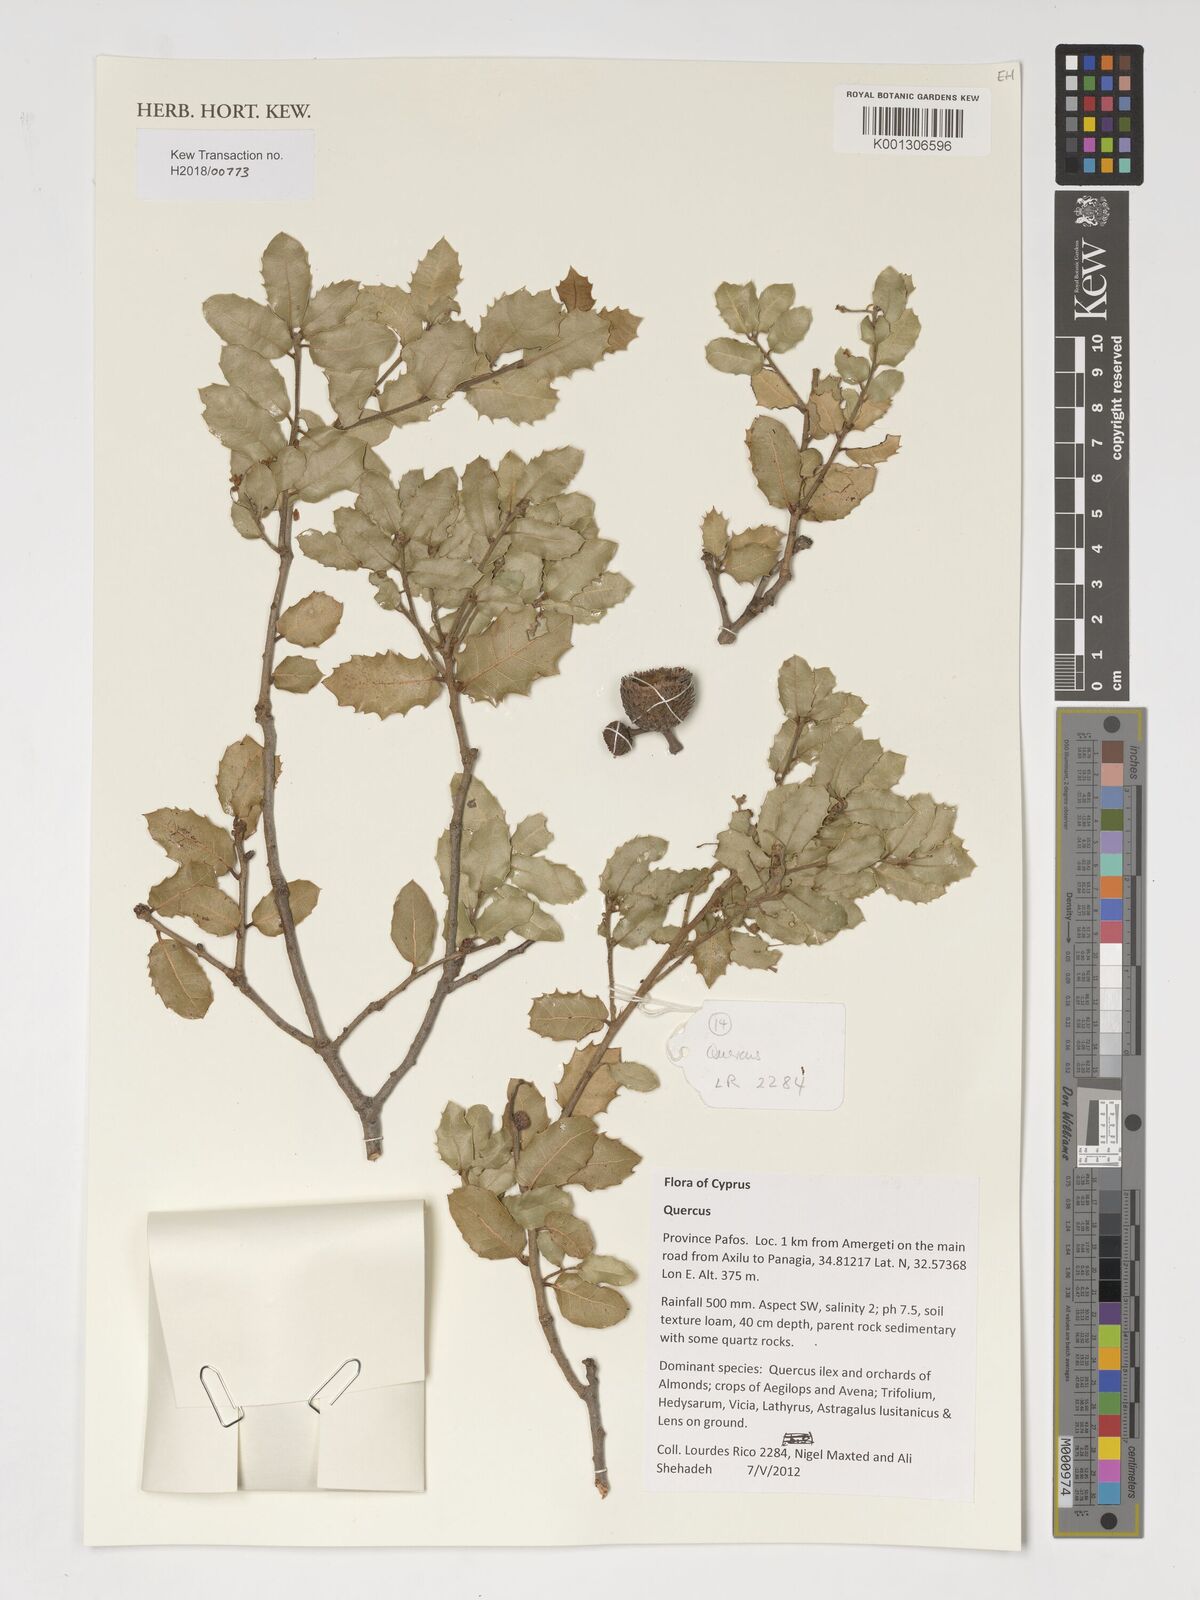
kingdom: Plantae
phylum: Tracheophyta
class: Magnoliopsida
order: Fagales
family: Fagaceae
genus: Quercus
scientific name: Quercus
